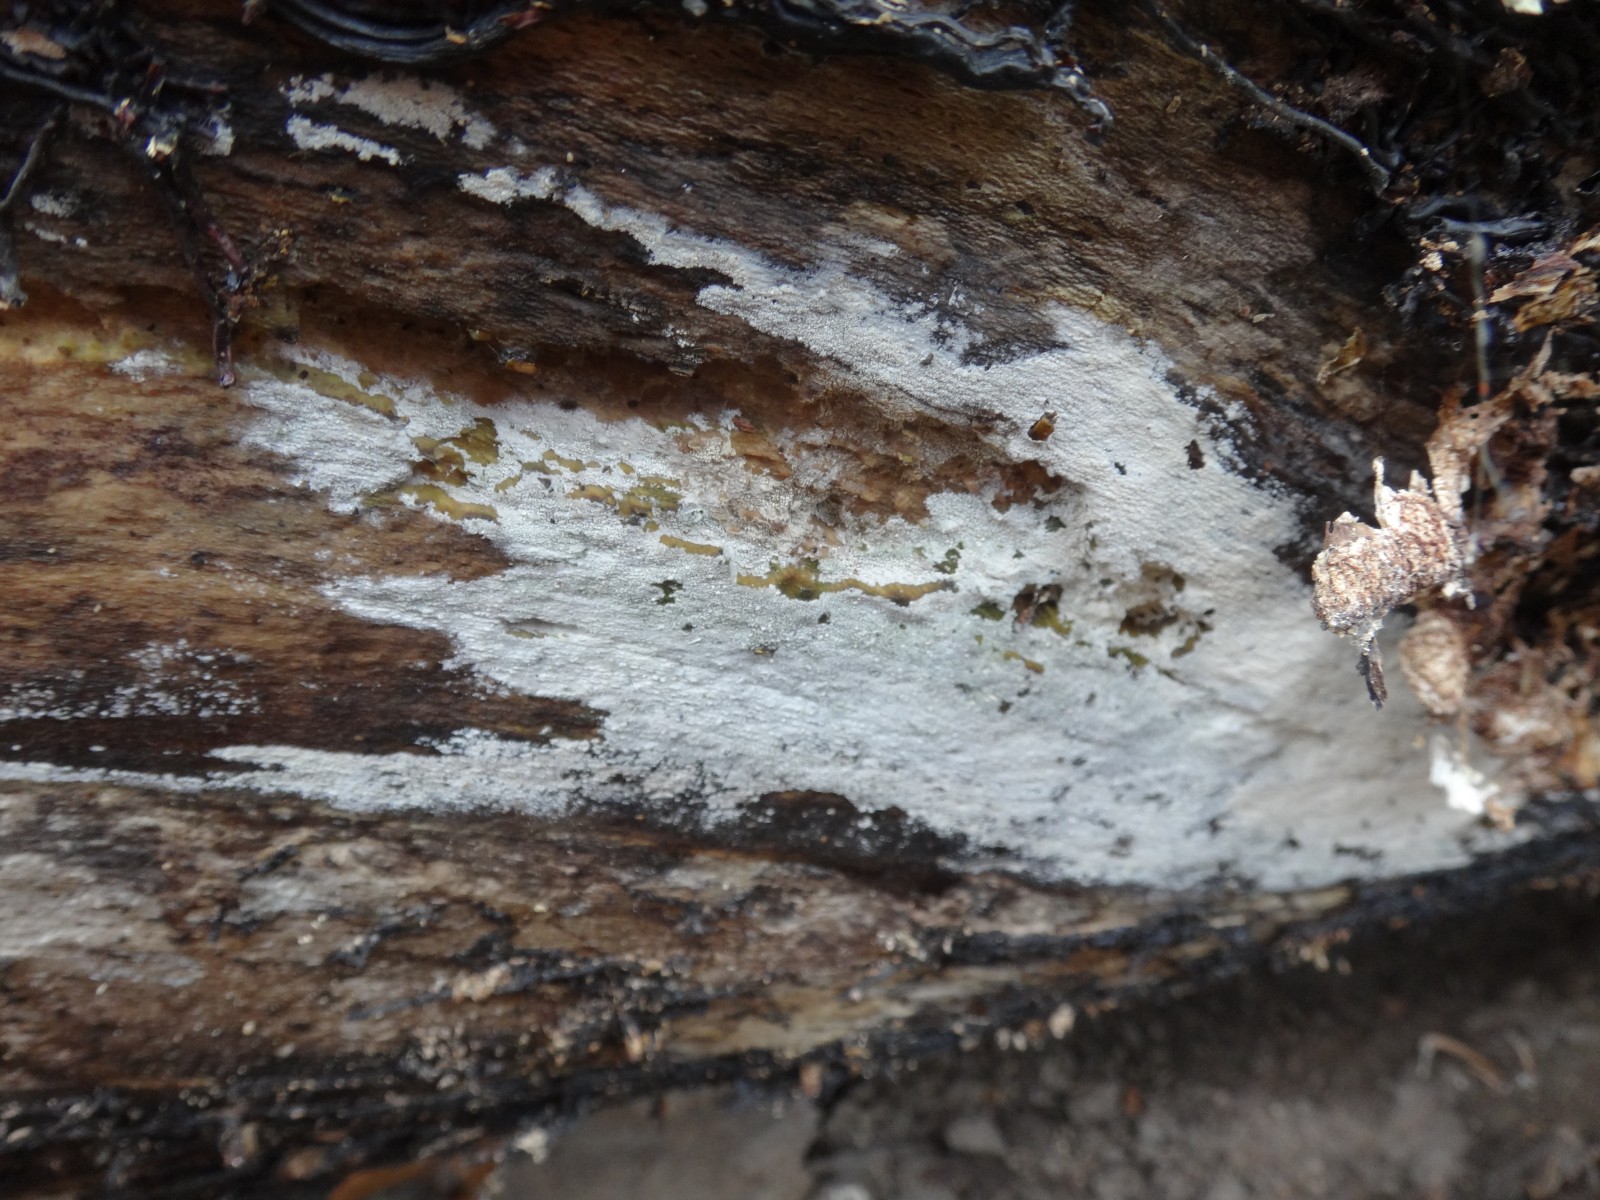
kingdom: Fungi
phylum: Basidiomycota
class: Agaricomycetes
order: Cantharellales
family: Hydnaceae
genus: Sistotrema
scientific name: Sistotrema sernanderi
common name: sur kroneskorpe
